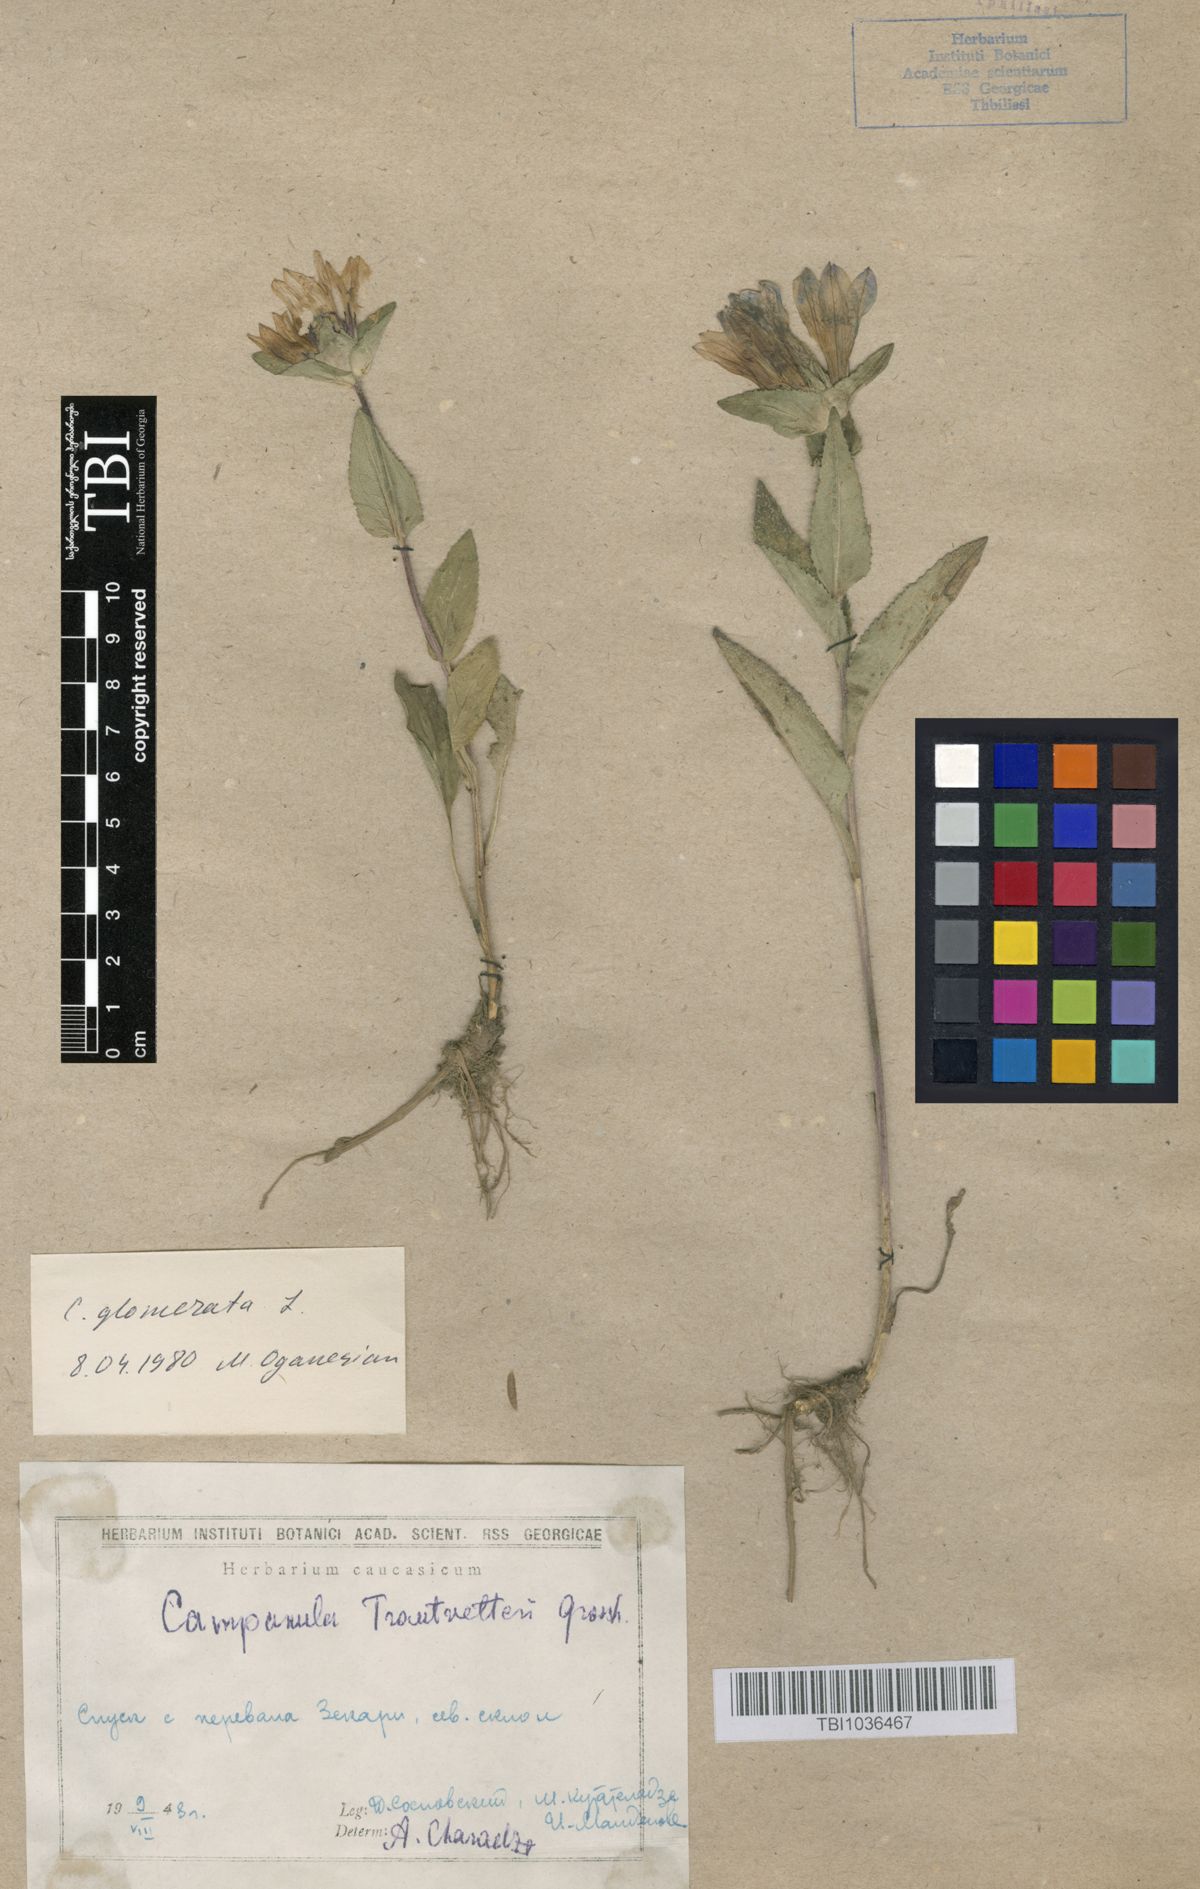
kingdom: Plantae
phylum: Tracheophyta
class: Magnoliopsida
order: Asterales
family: Campanulaceae
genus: Campanula
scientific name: Campanula glomerata
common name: Clustered bellflower
